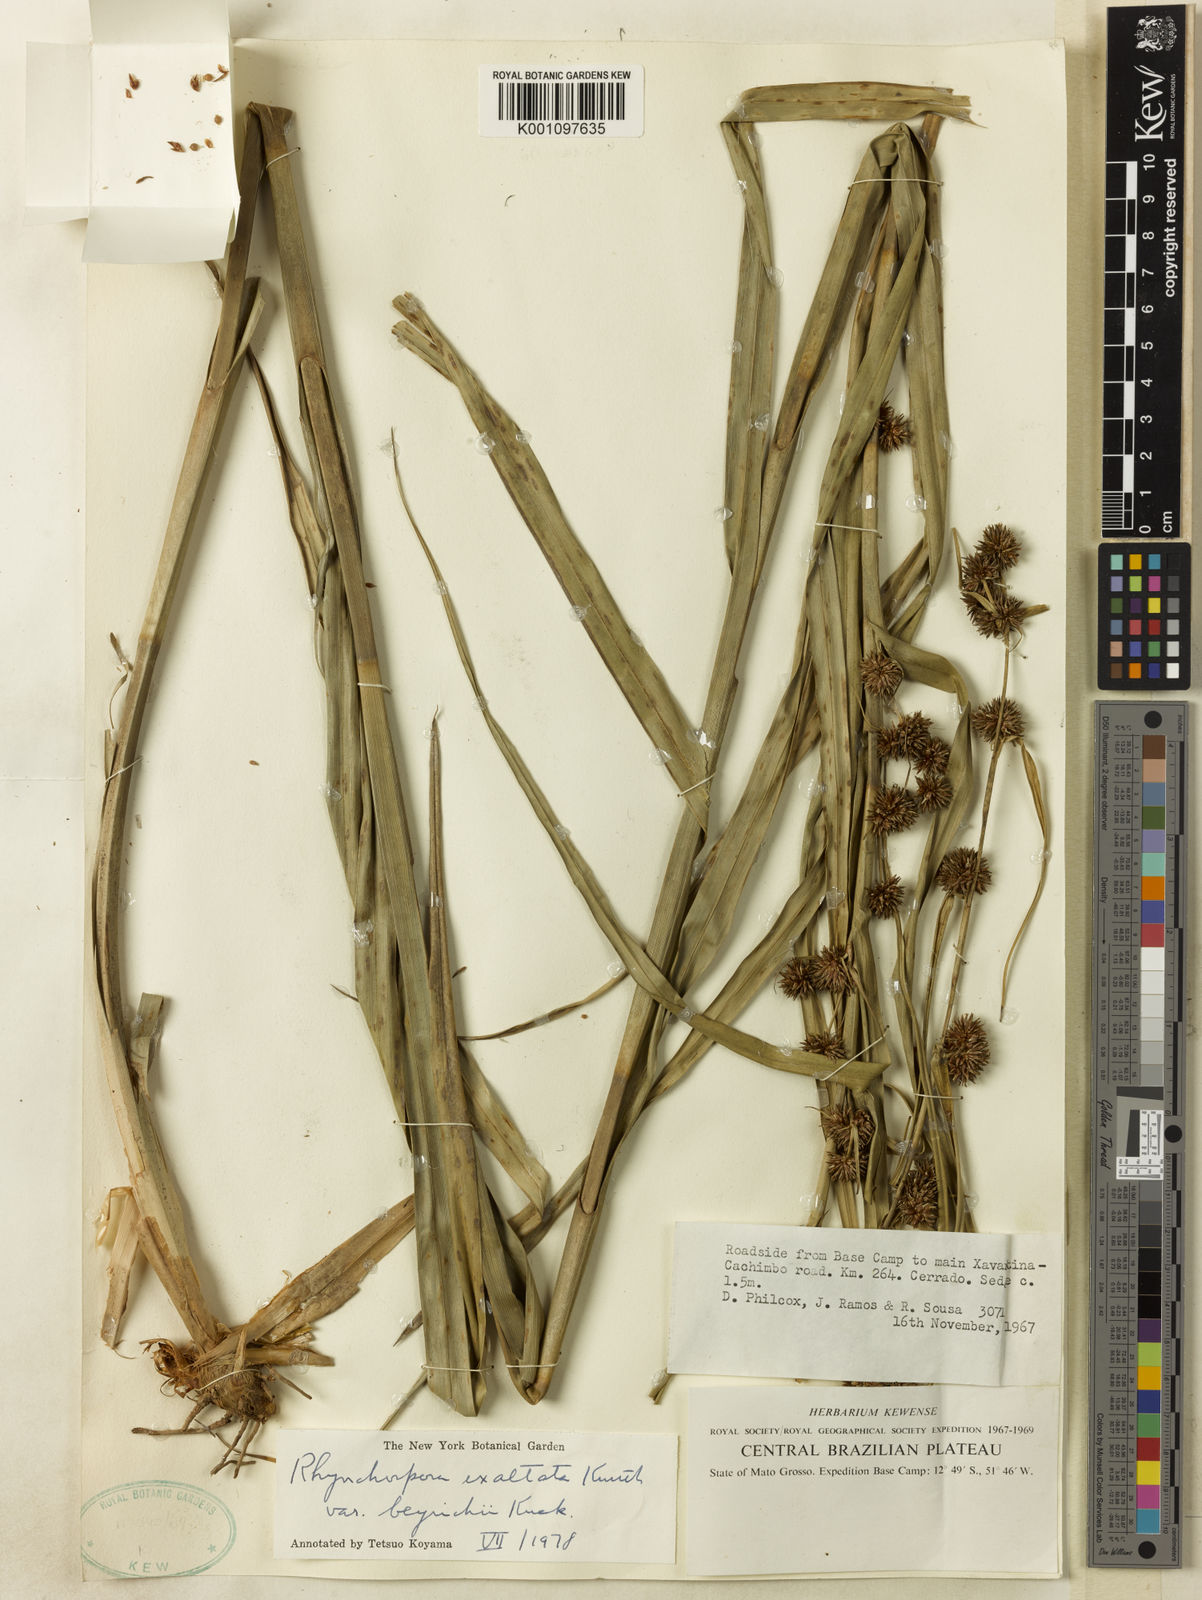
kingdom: Plantae
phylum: Tracheophyta
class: Liliopsida
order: Poales
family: Cyperaceae
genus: Rhynchospora
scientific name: Rhynchospora
